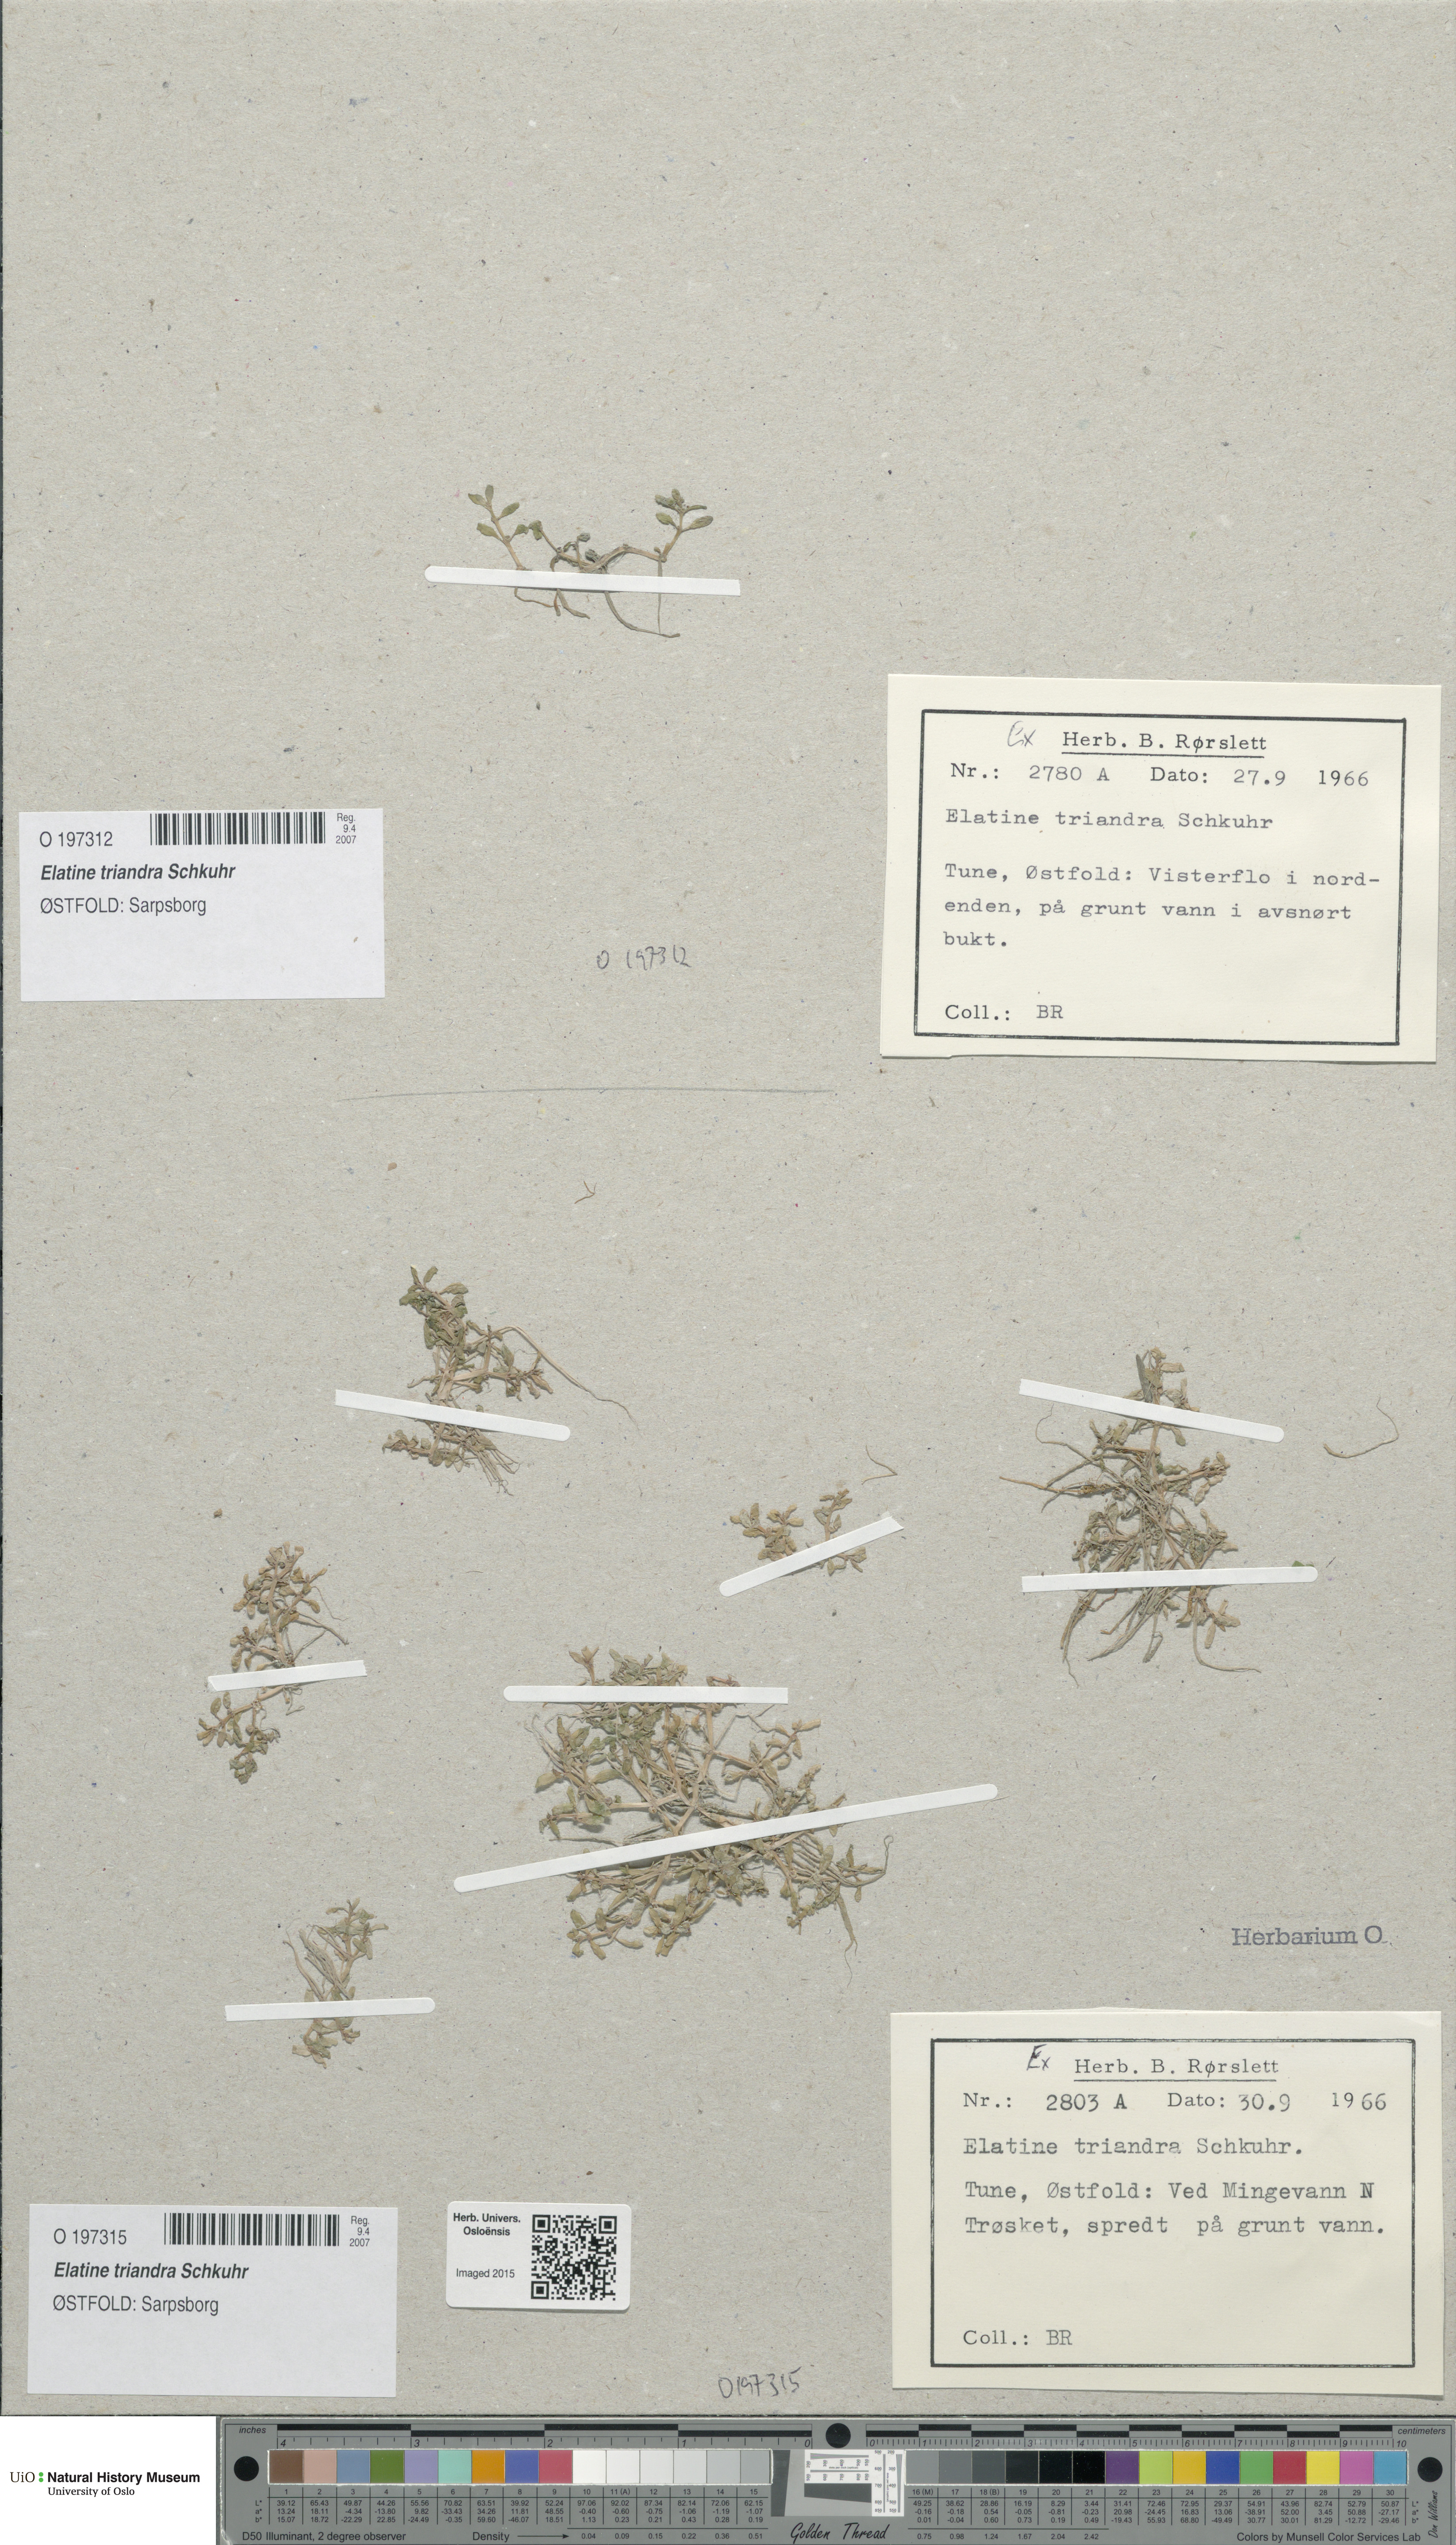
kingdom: Plantae
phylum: Tracheophyta
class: Magnoliopsida
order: Malpighiales
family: Elatinaceae
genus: Elatine
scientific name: Elatine triandra
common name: Three-stamened waterwort
